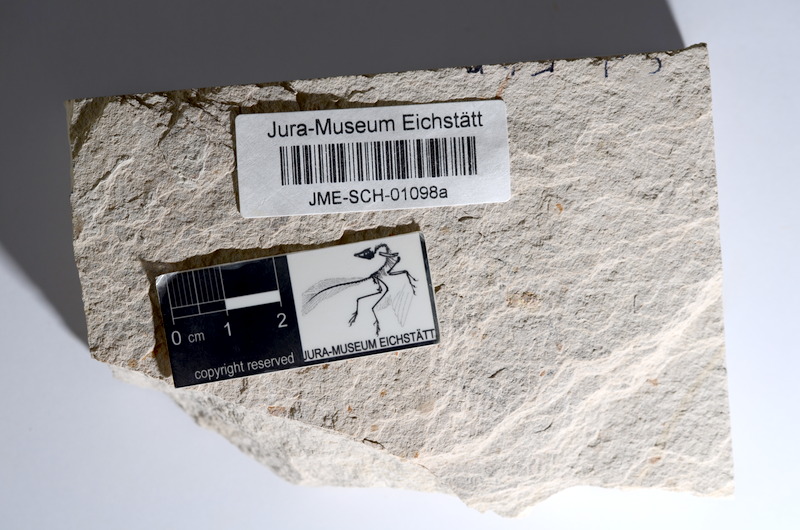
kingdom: Animalia
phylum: Chordata
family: Ascalaboidae
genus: Tharsis
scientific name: Tharsis dubius
